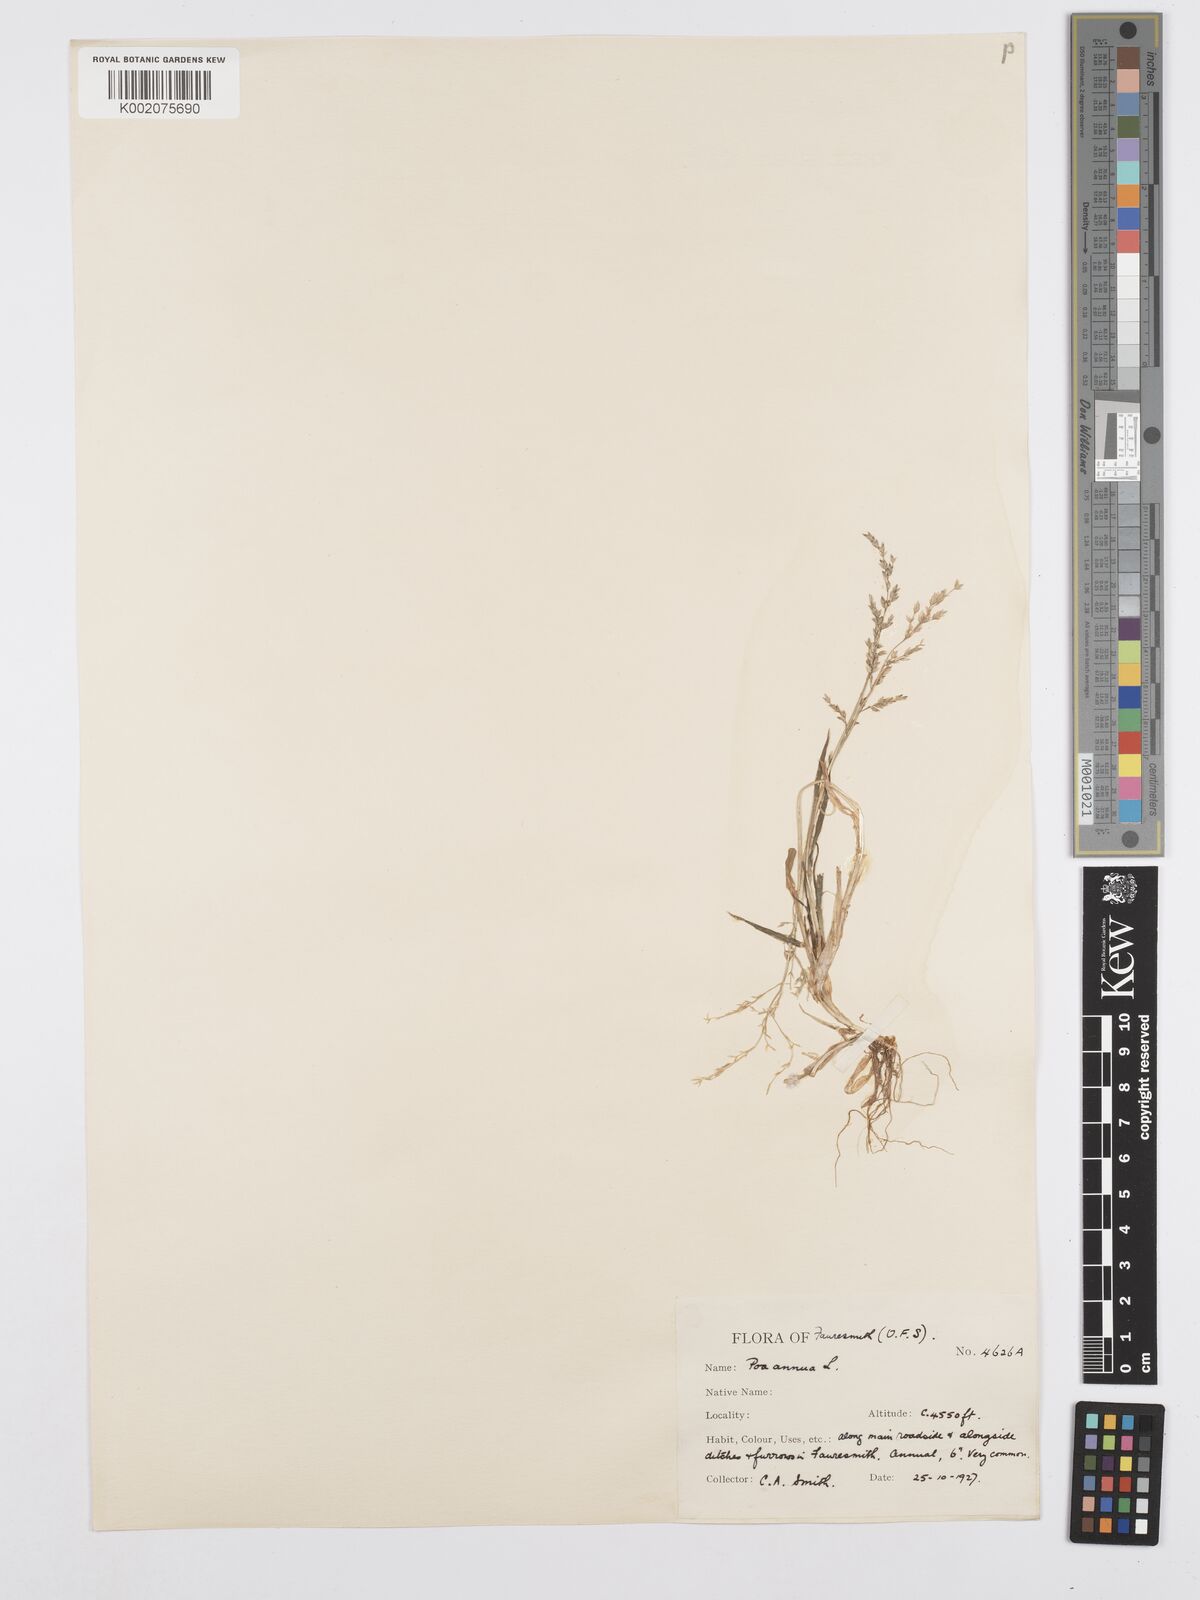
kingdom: Plantae
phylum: Tracheophyta
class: Liliopsida
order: Poales
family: Poaceae
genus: Poa
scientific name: Poa annua
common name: Annual bluegrass
